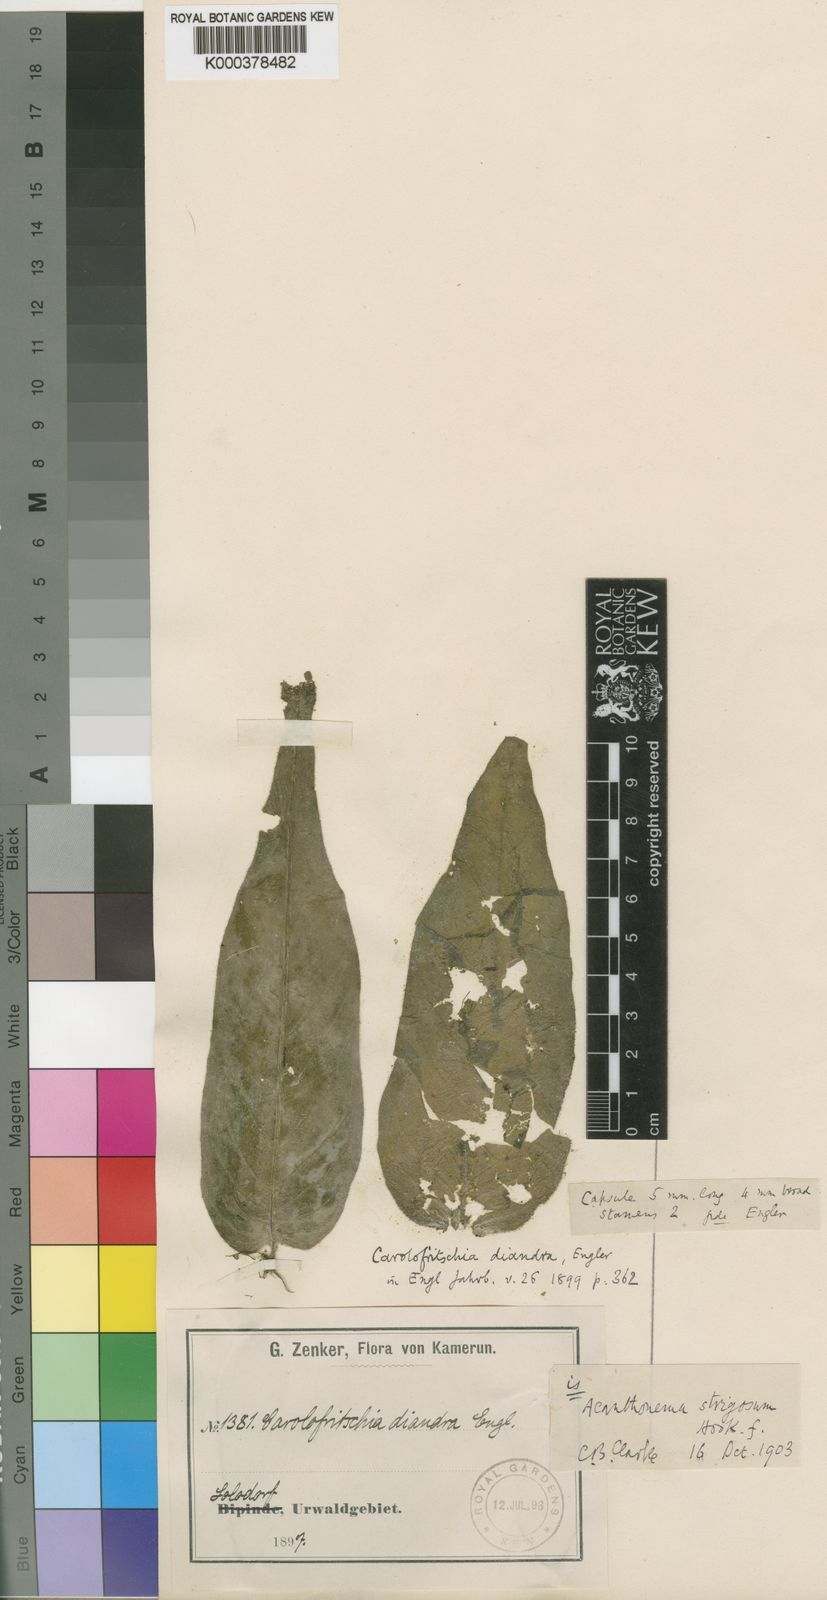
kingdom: Plantae
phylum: Tracheophyta
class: Magnoliopsida
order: Lamiales
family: Gesneriaceae
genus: Streptocarpus
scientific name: Streptocarpus strigosus
